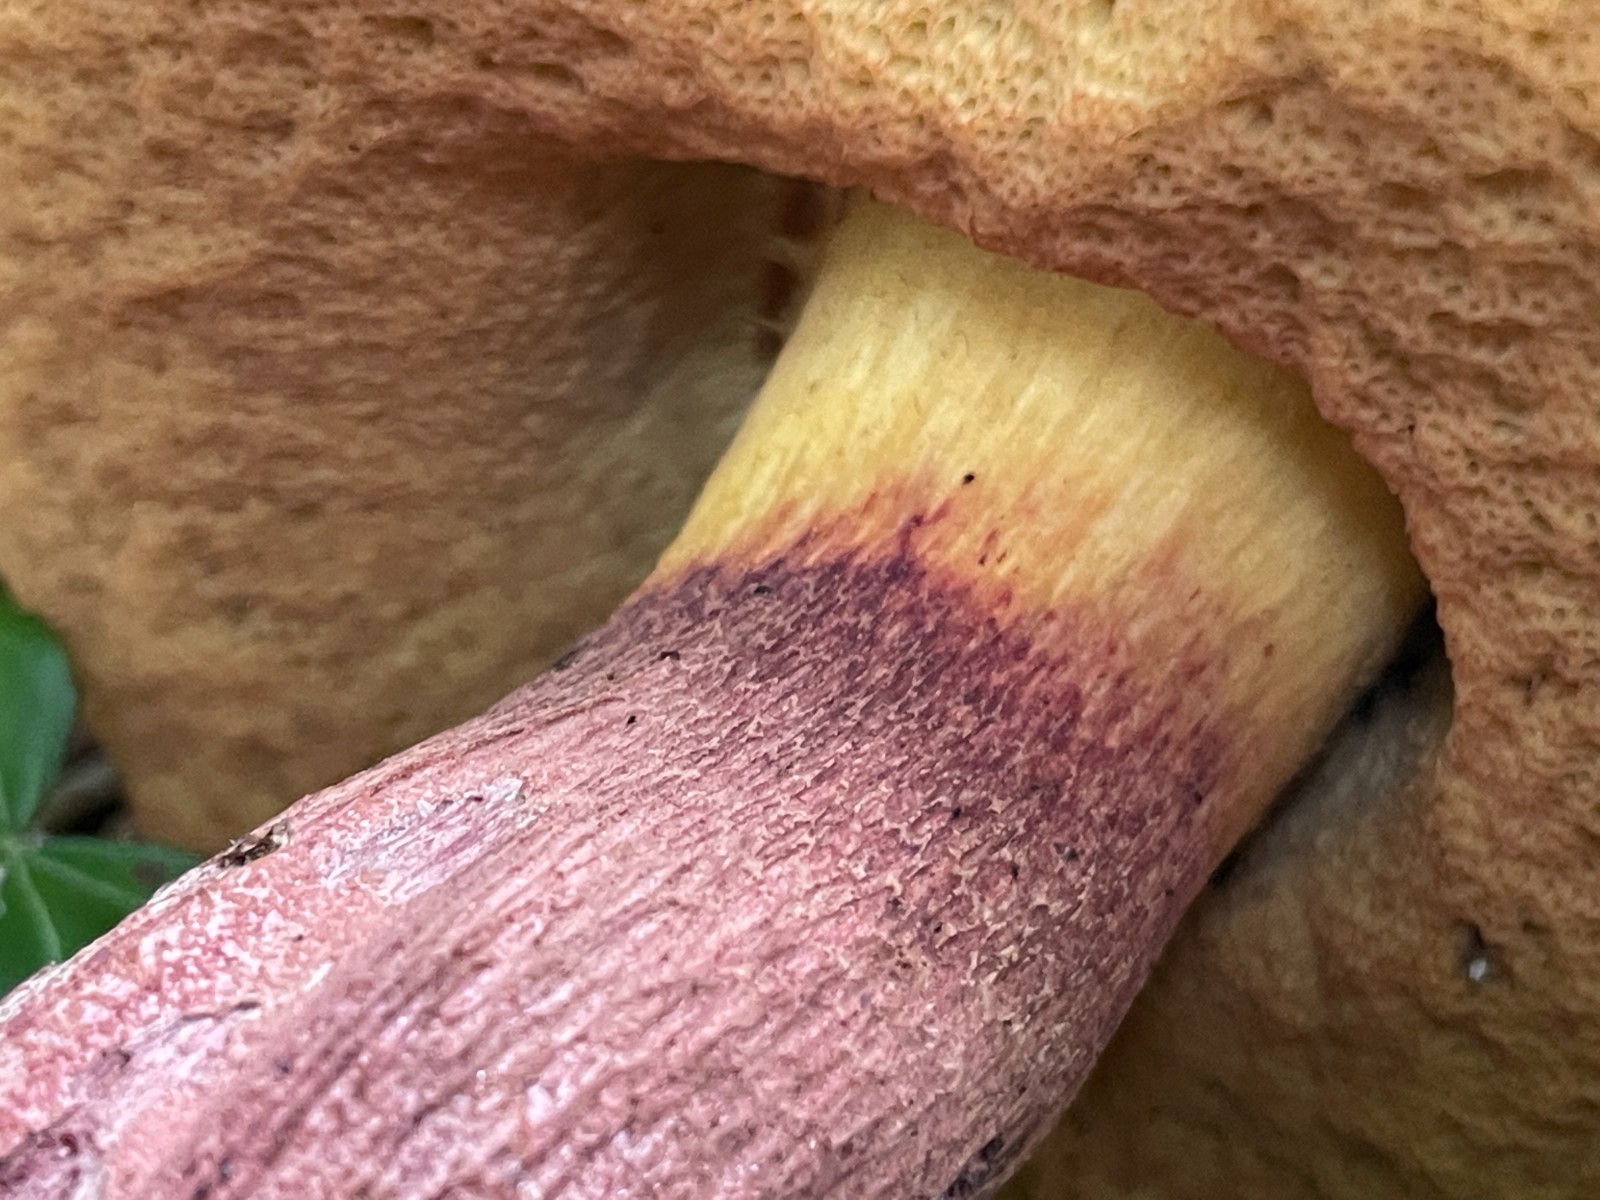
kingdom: Fungi
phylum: Basidiomycota
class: Agaricomycetes
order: Boletales
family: Boletaceae
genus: Suillellus
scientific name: Suillellus
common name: indigorørhat
